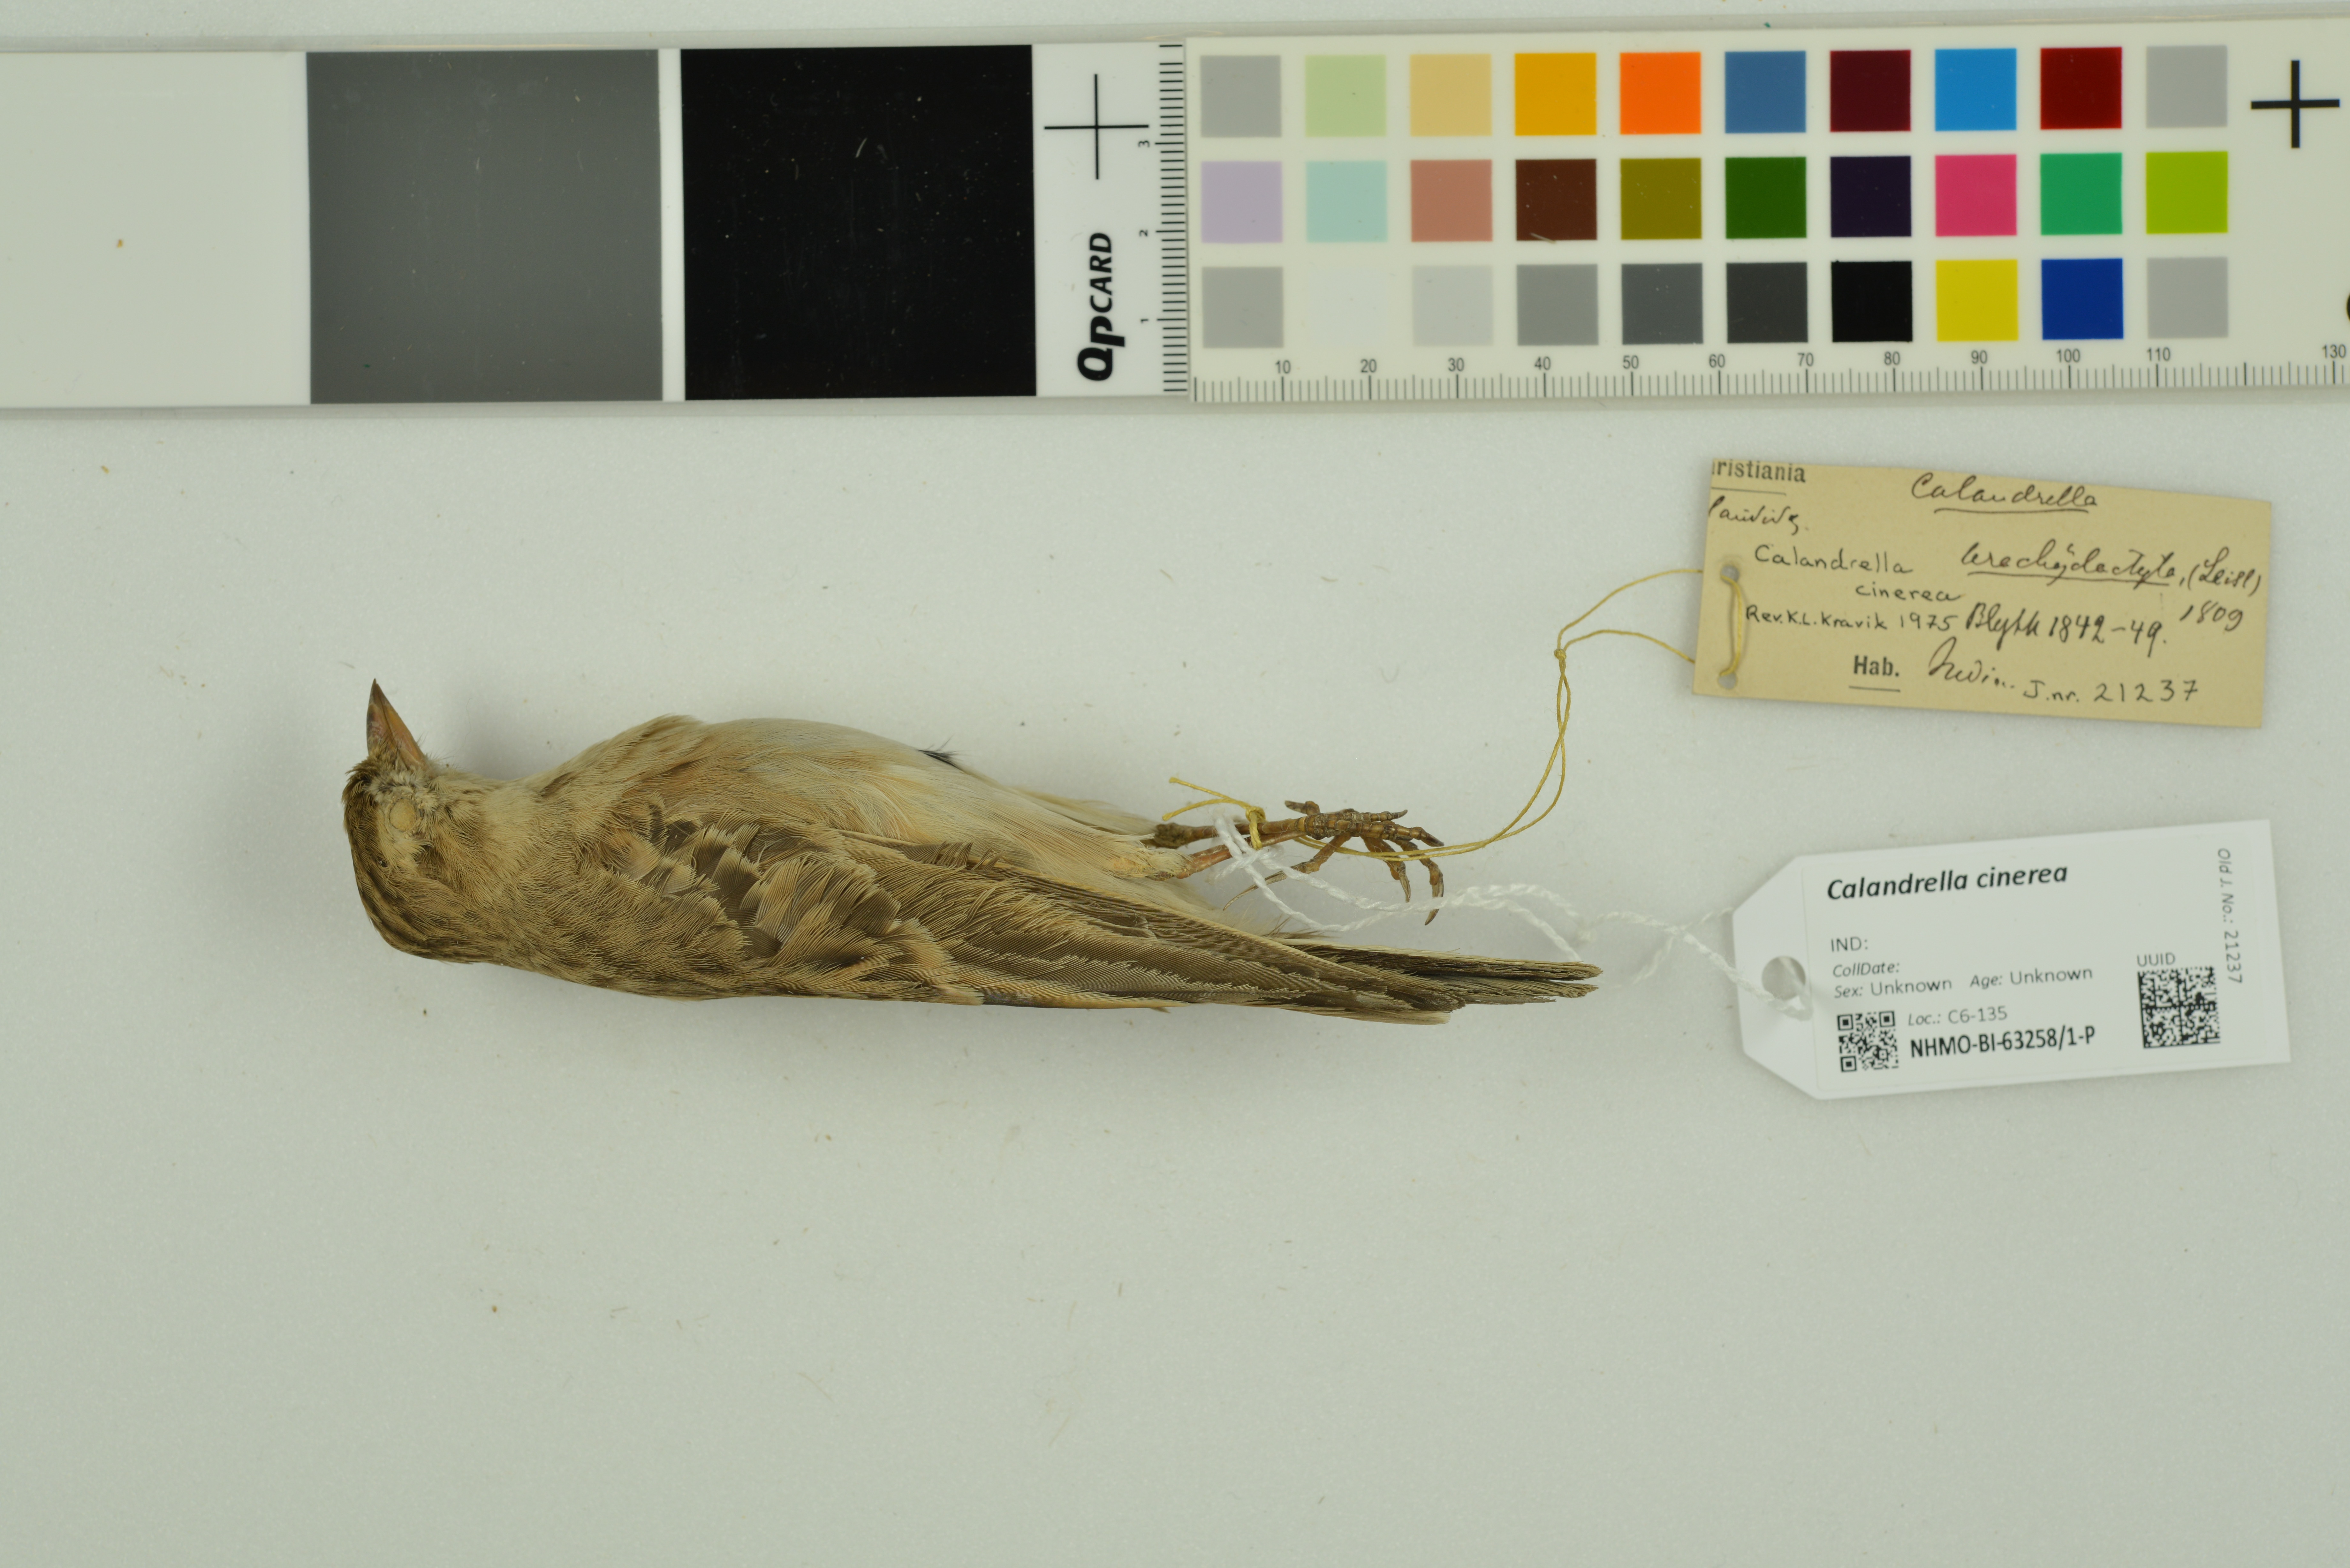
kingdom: Animalia
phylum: Chordata
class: Aves
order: Passeriformes
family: Alaudidae
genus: Calandrella
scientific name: Calandrella cinerea
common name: Red-capped lark
